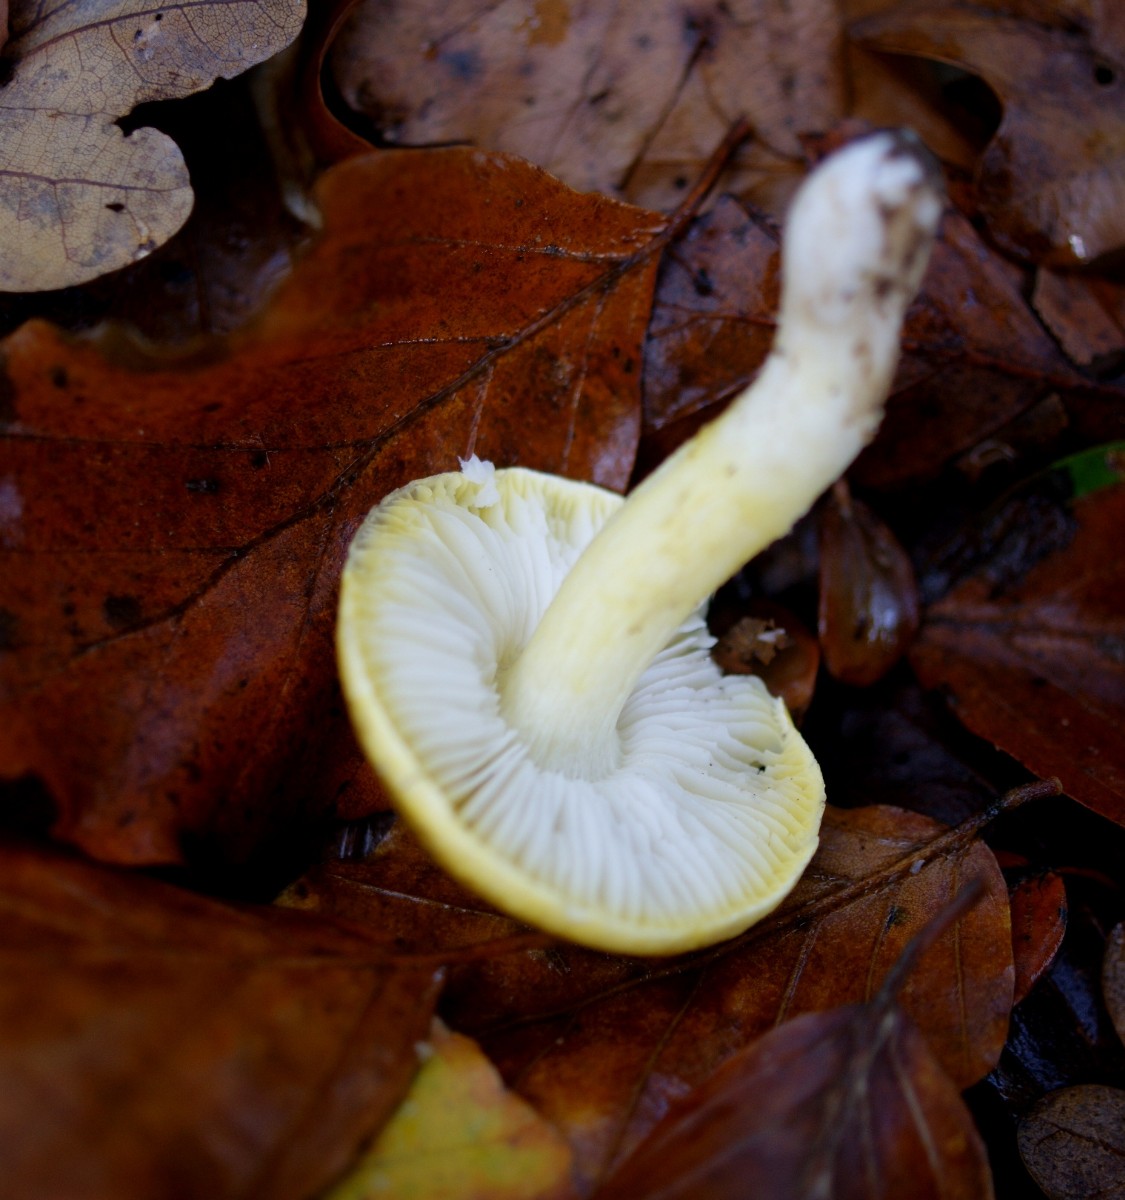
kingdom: Fungi
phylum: Basidiomycota
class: Agaricomycetes
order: Agaricales
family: Tricholomataceae
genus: Tricholoma
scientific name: Tricholoma sejunctum
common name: grøngul ridderhat
